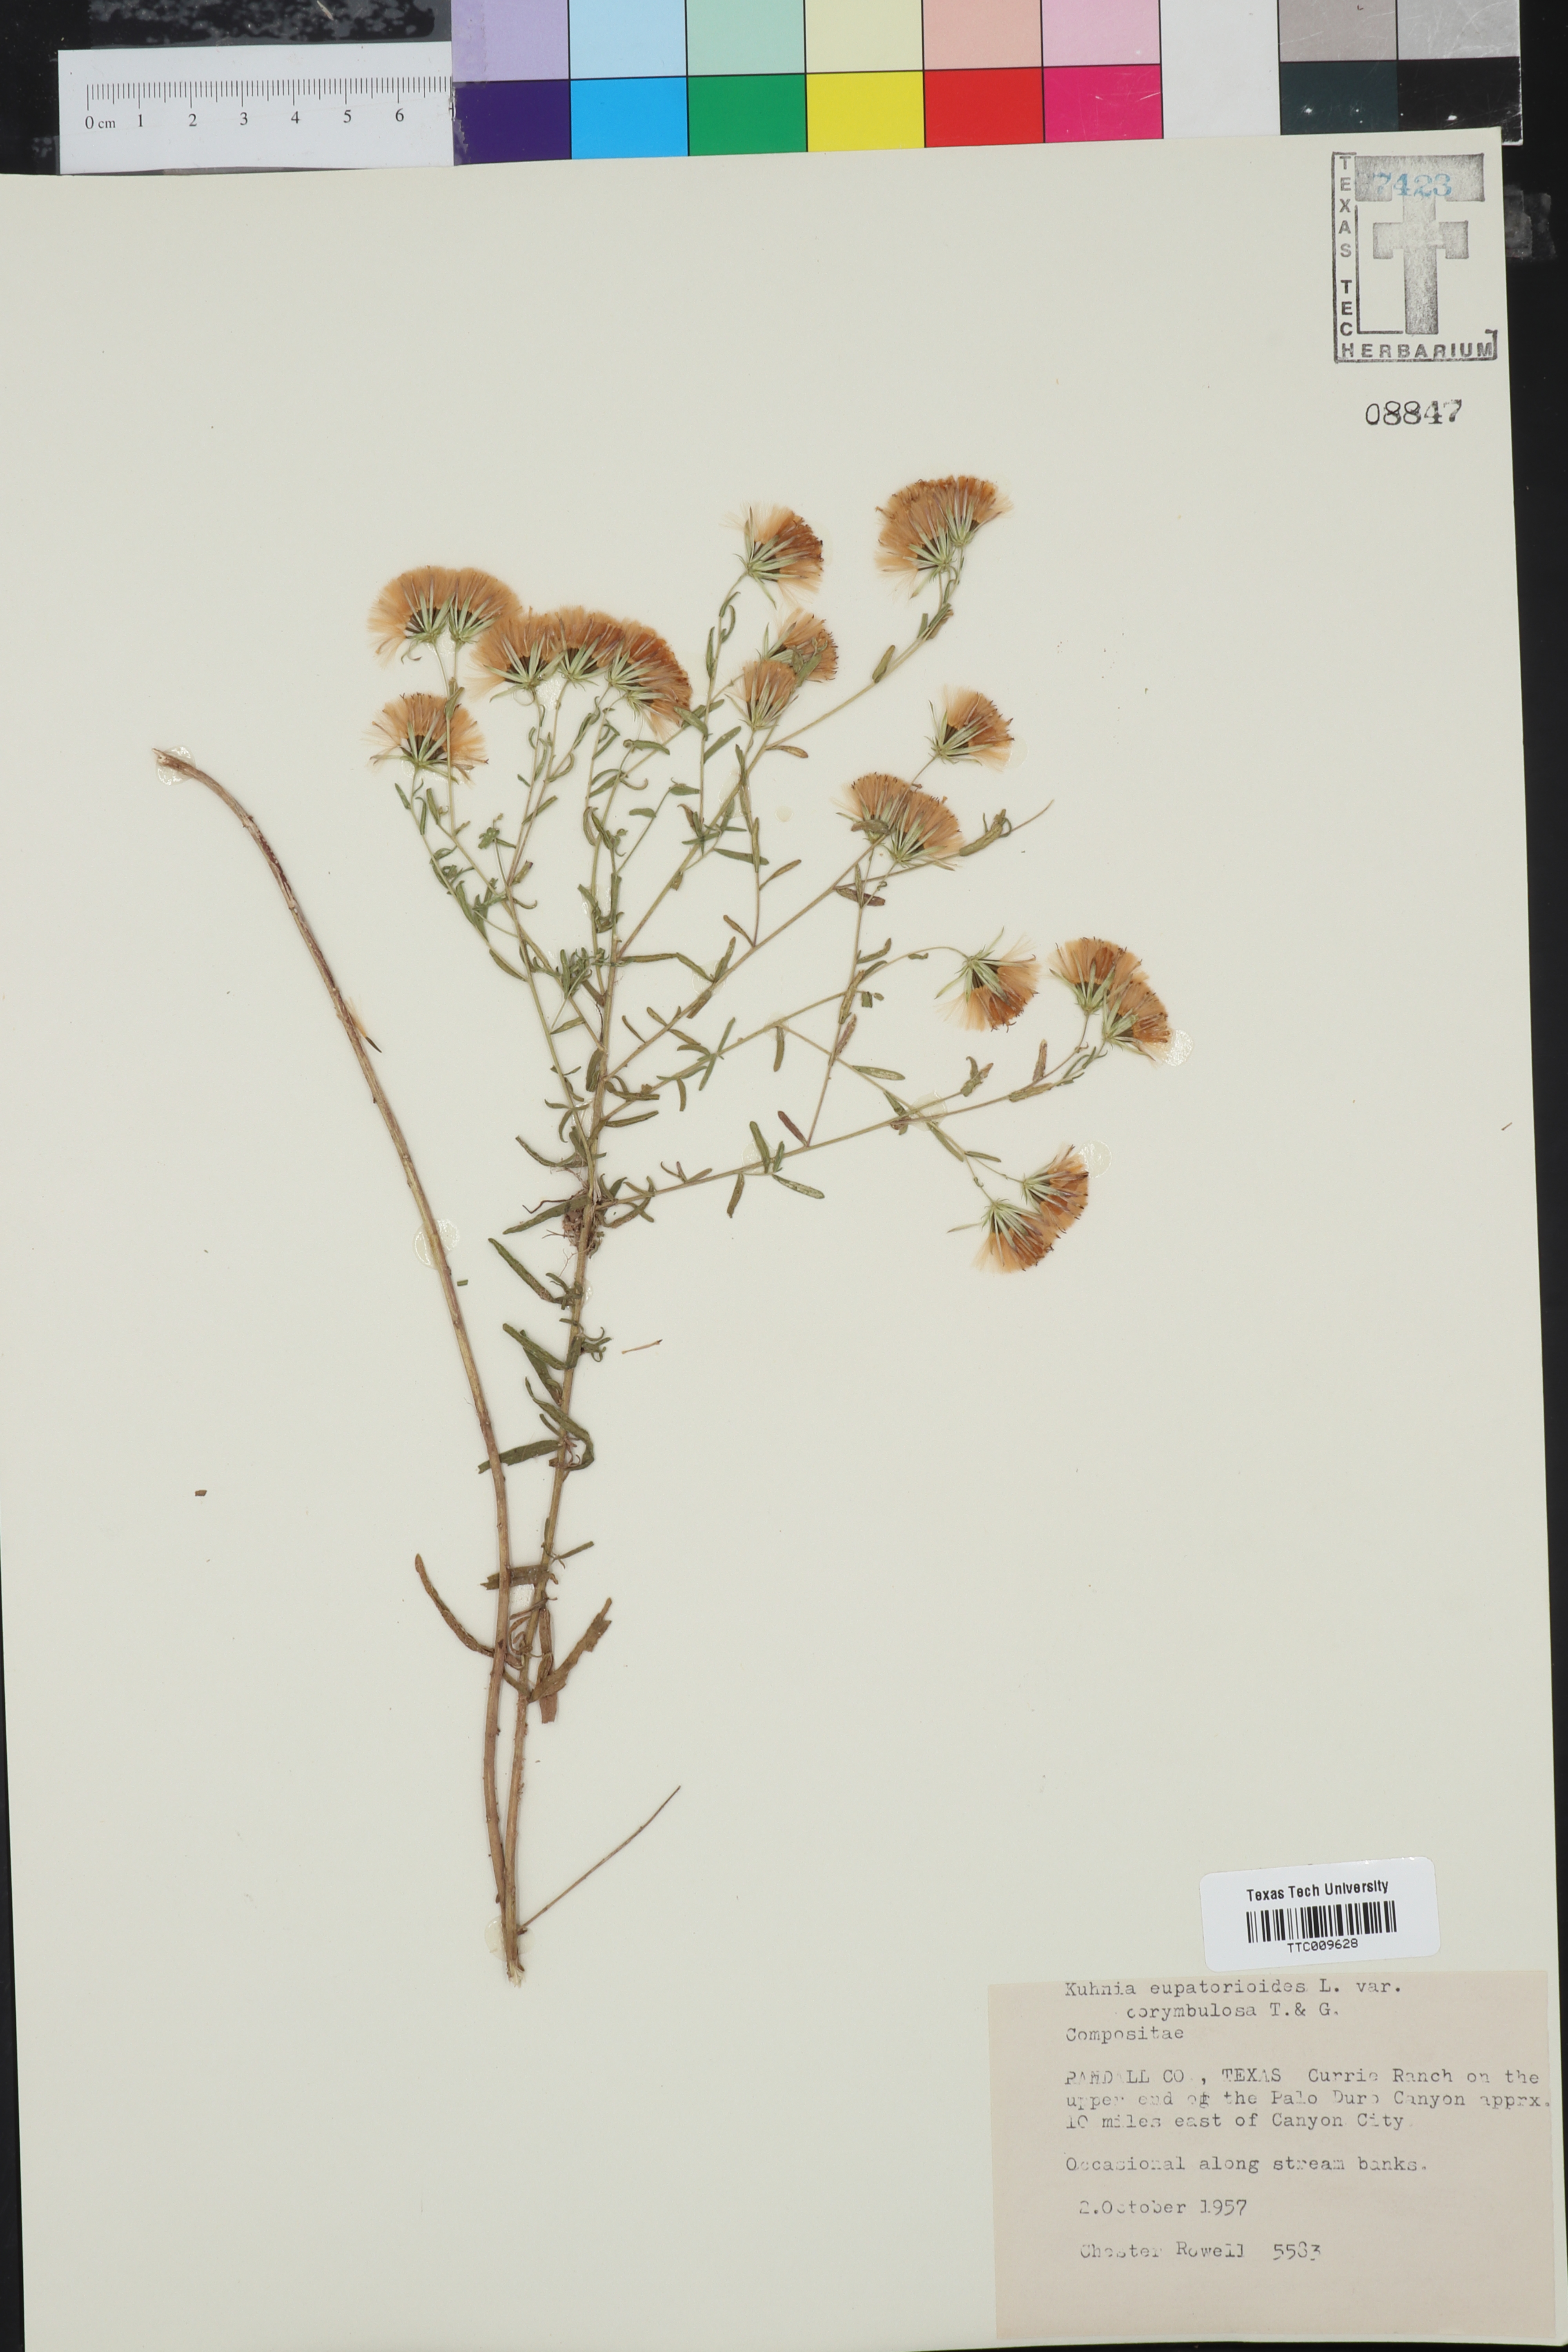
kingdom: Plantae
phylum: Tracheophyta
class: Magnoliopsida
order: Asterales
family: Asteraceae
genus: Brickellia
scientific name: Brickellia suaveolens
